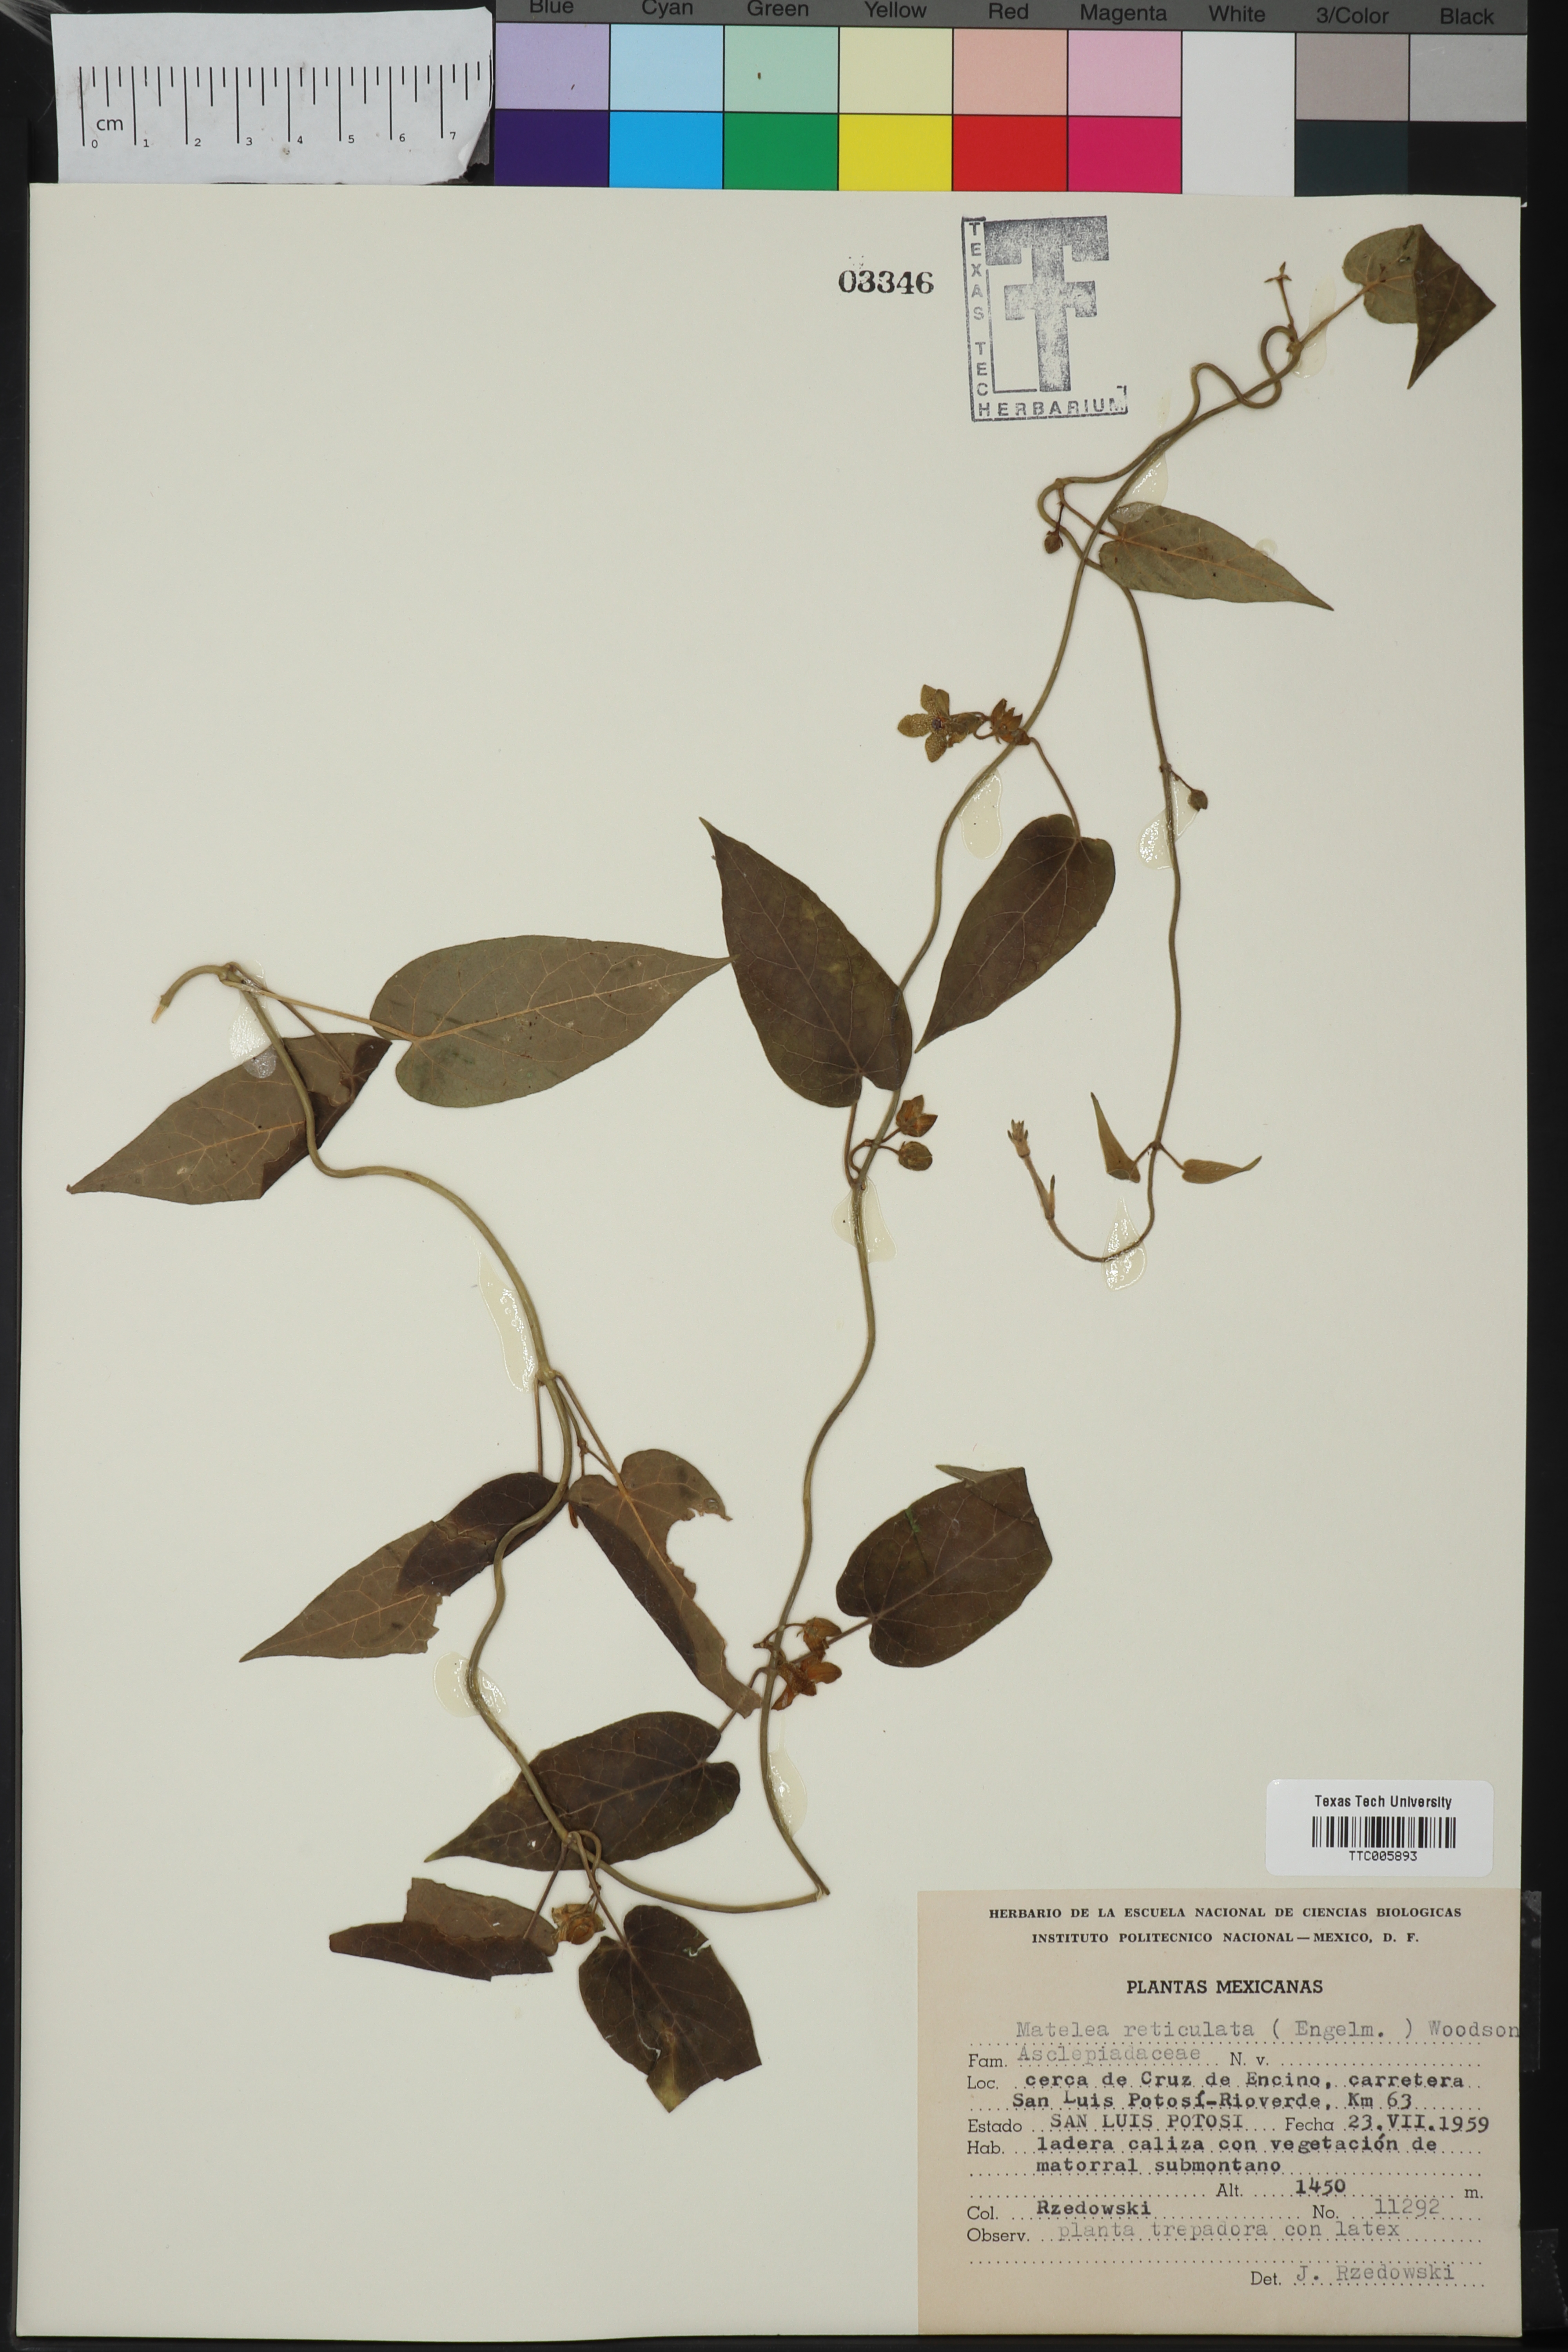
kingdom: Plantae
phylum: Tracheophyta
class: Magnoliopsida
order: Gentianales
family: Apocynaceae
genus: Dictyanthus
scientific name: Dictyanthus reticulatus
